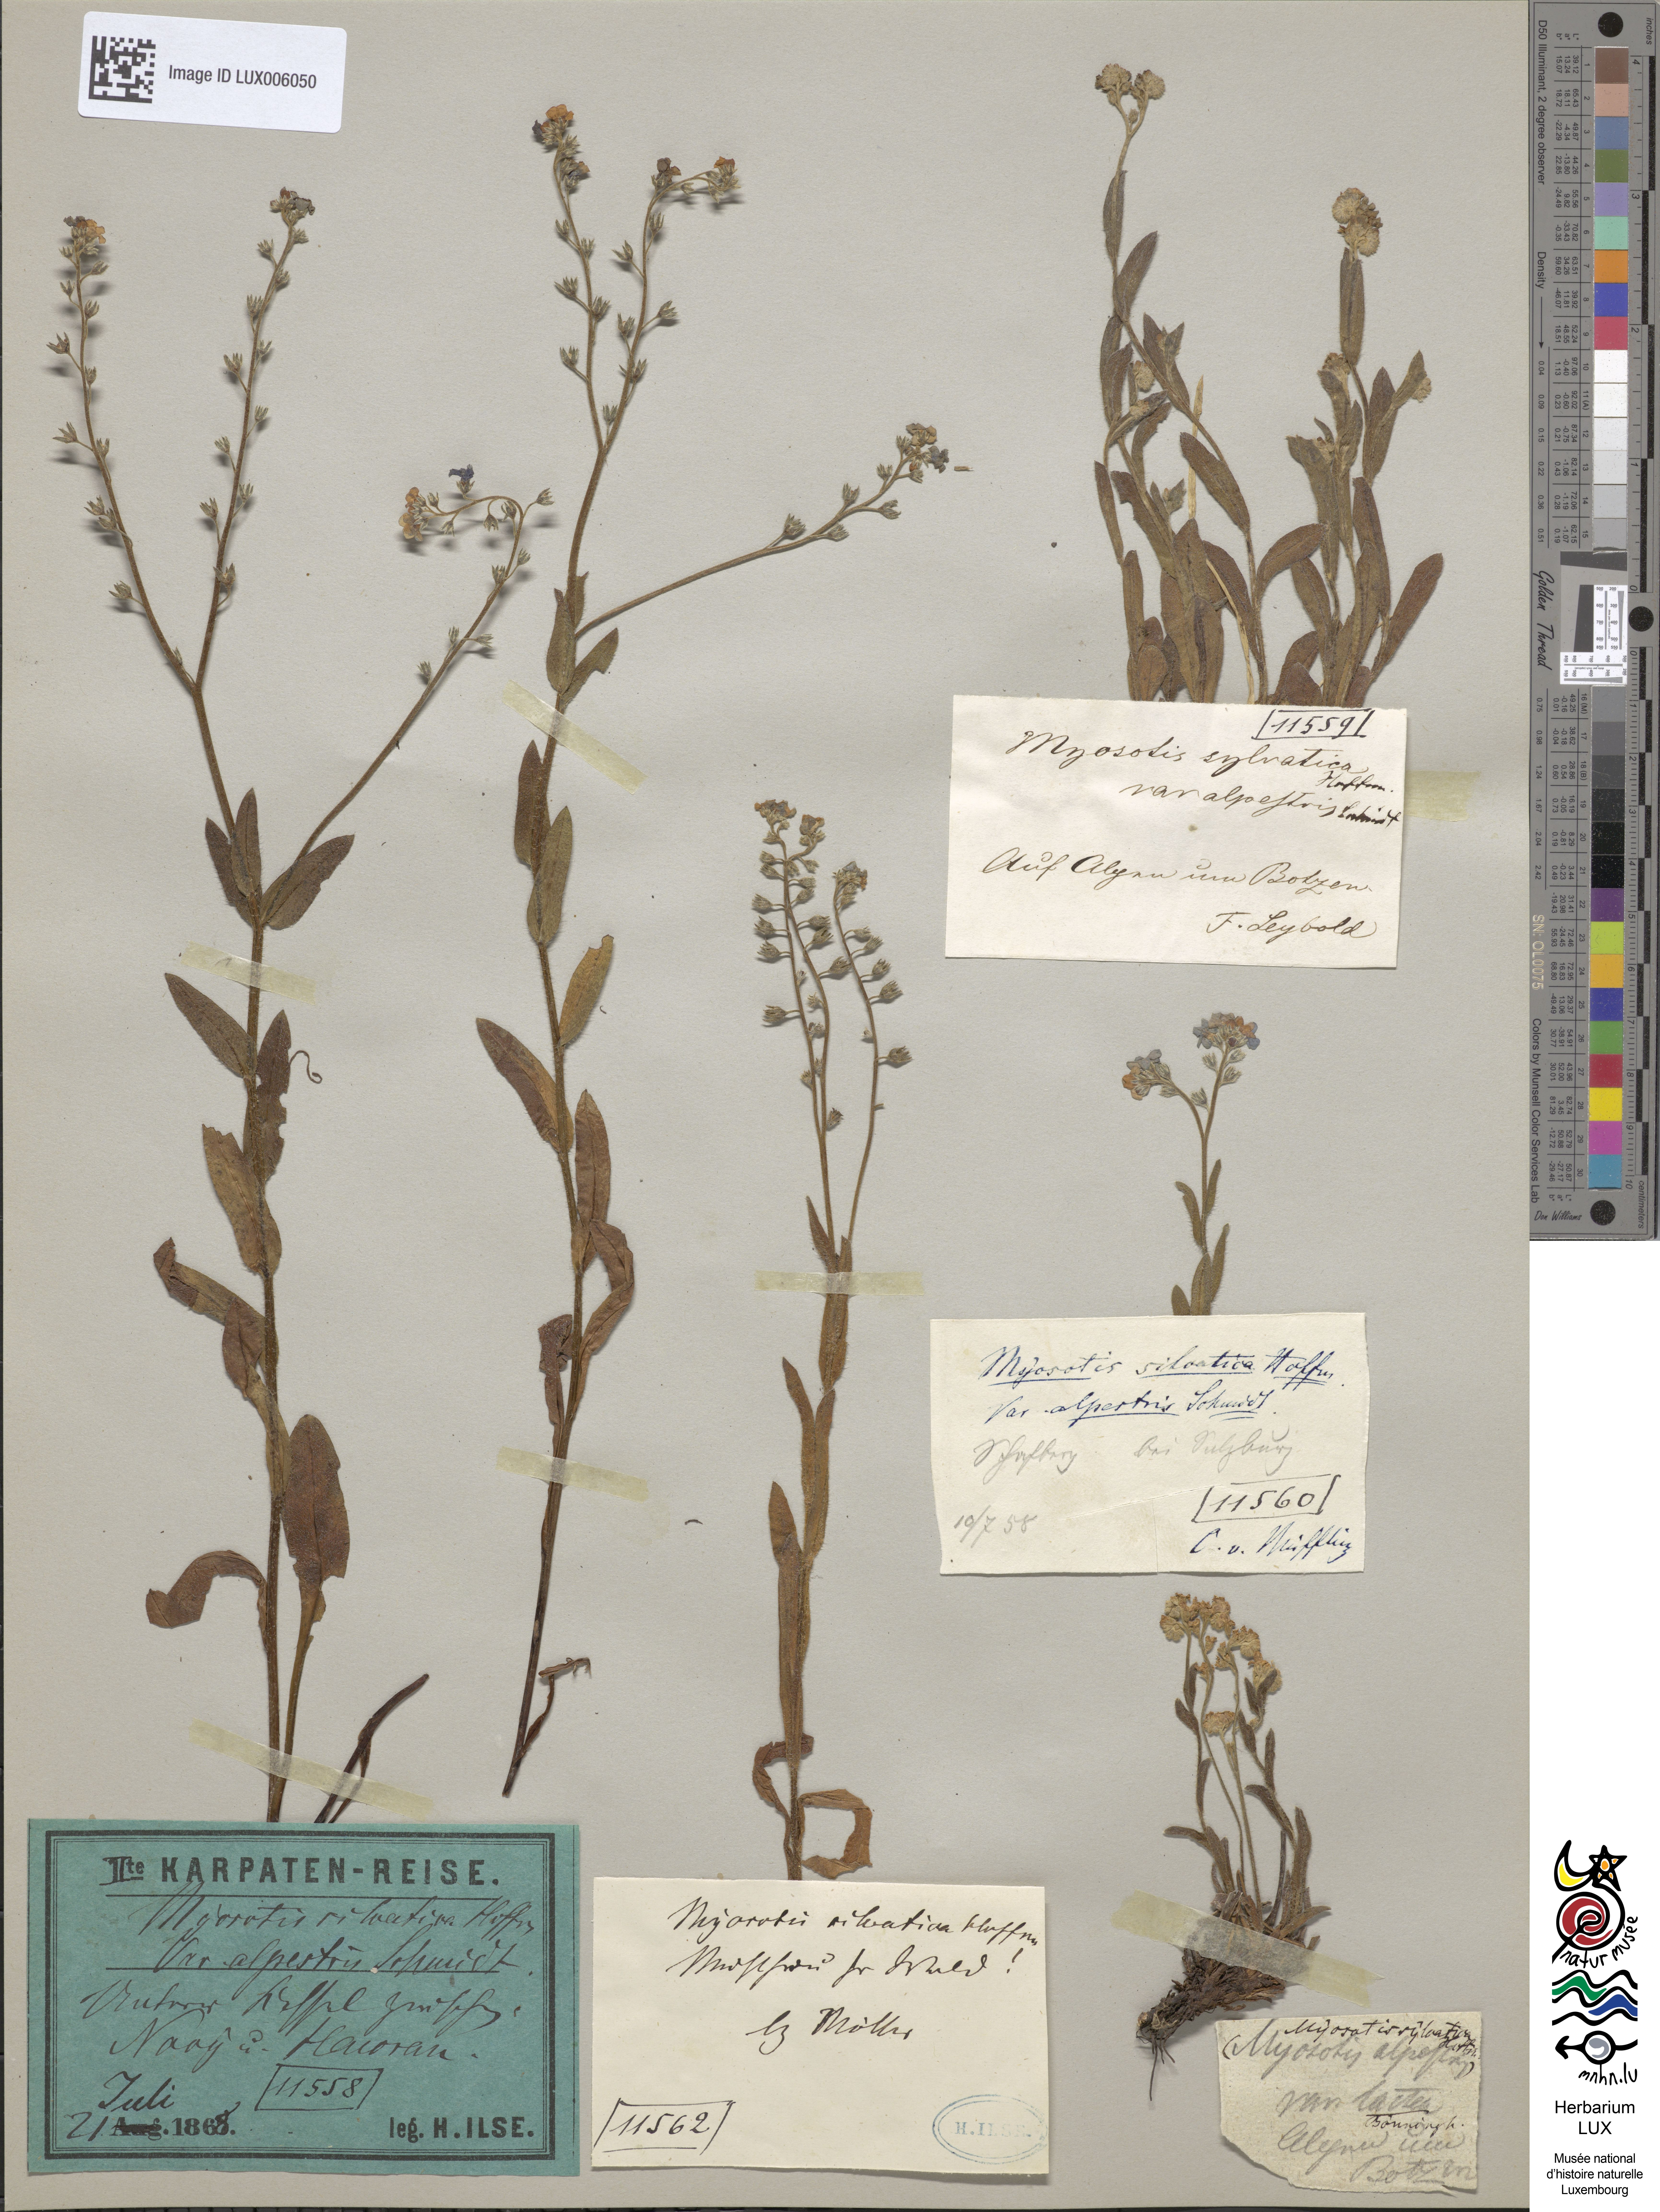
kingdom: Plantae
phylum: Tracheophyta
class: Magnoliopsida
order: Boraginales
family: Boraginaceae
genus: Myosotis
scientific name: Myosotis alpestris
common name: Alpine forget-me-not
